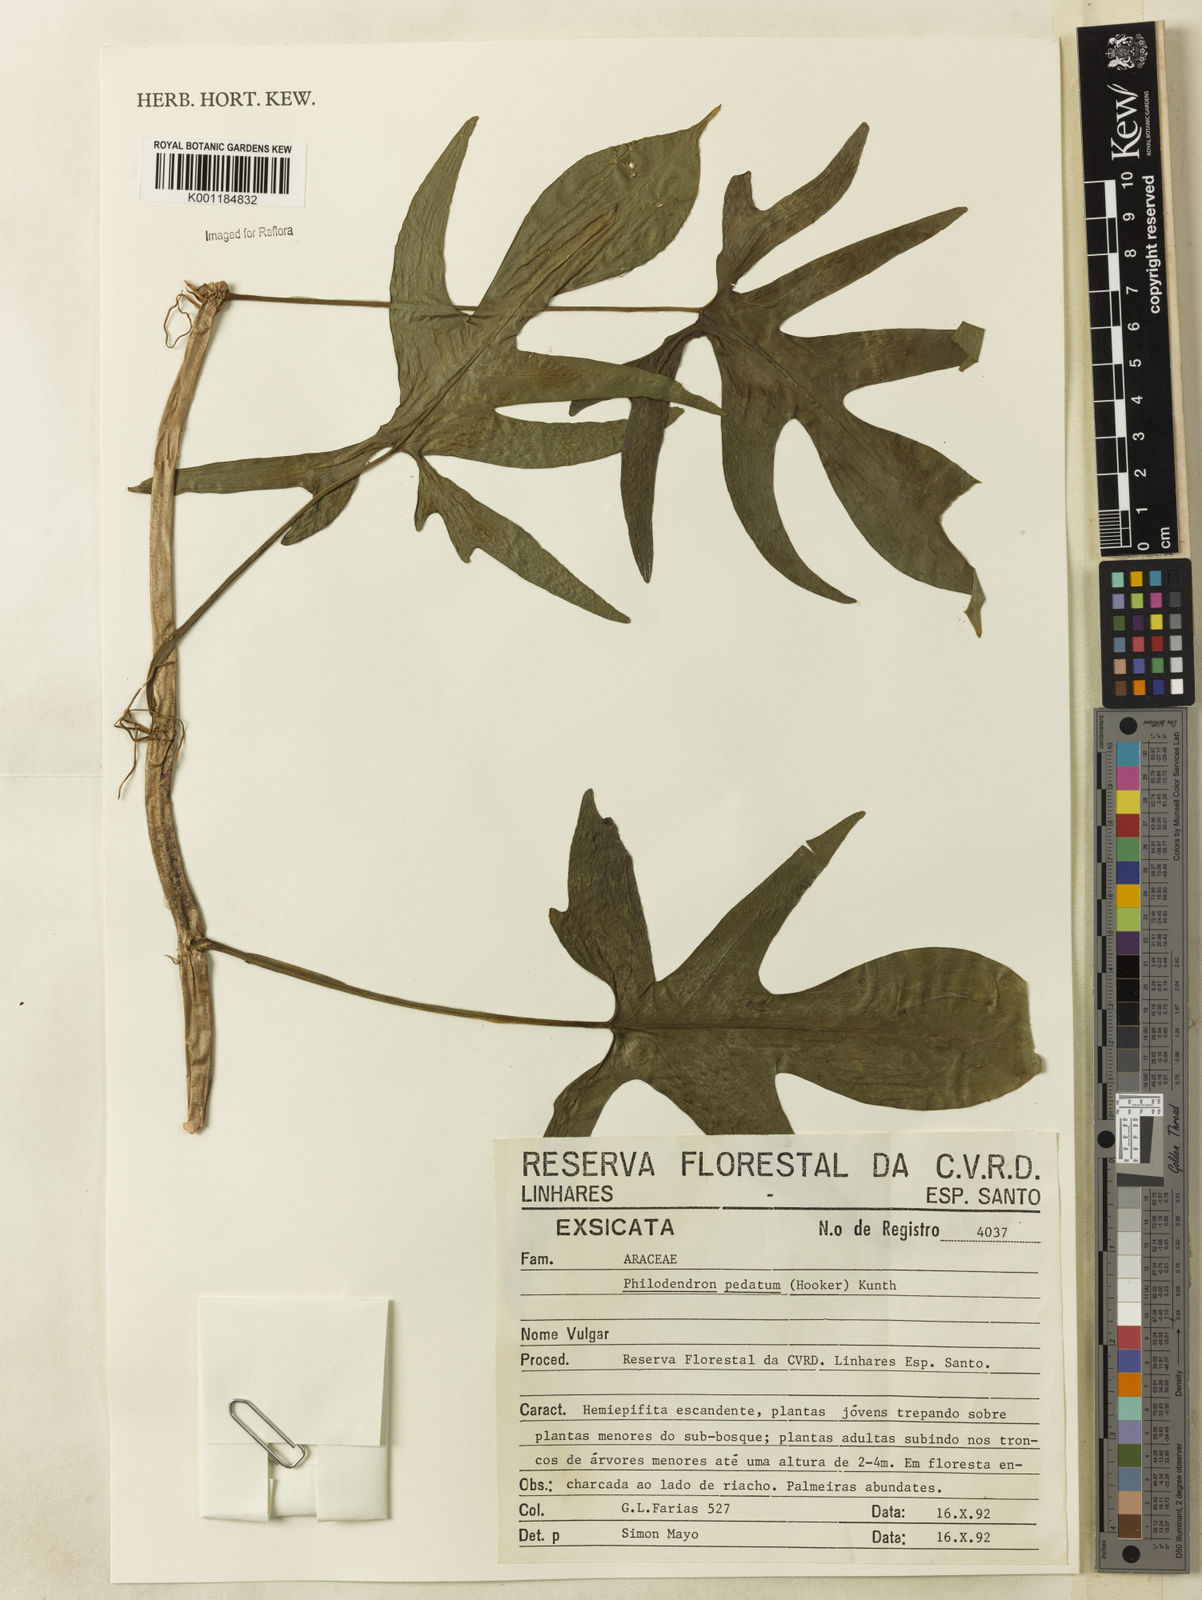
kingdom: Plantae
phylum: Tracheophyta
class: Liliopsida
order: Alismatales
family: Araceae
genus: Philodendron
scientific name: Philodendron pedatum
